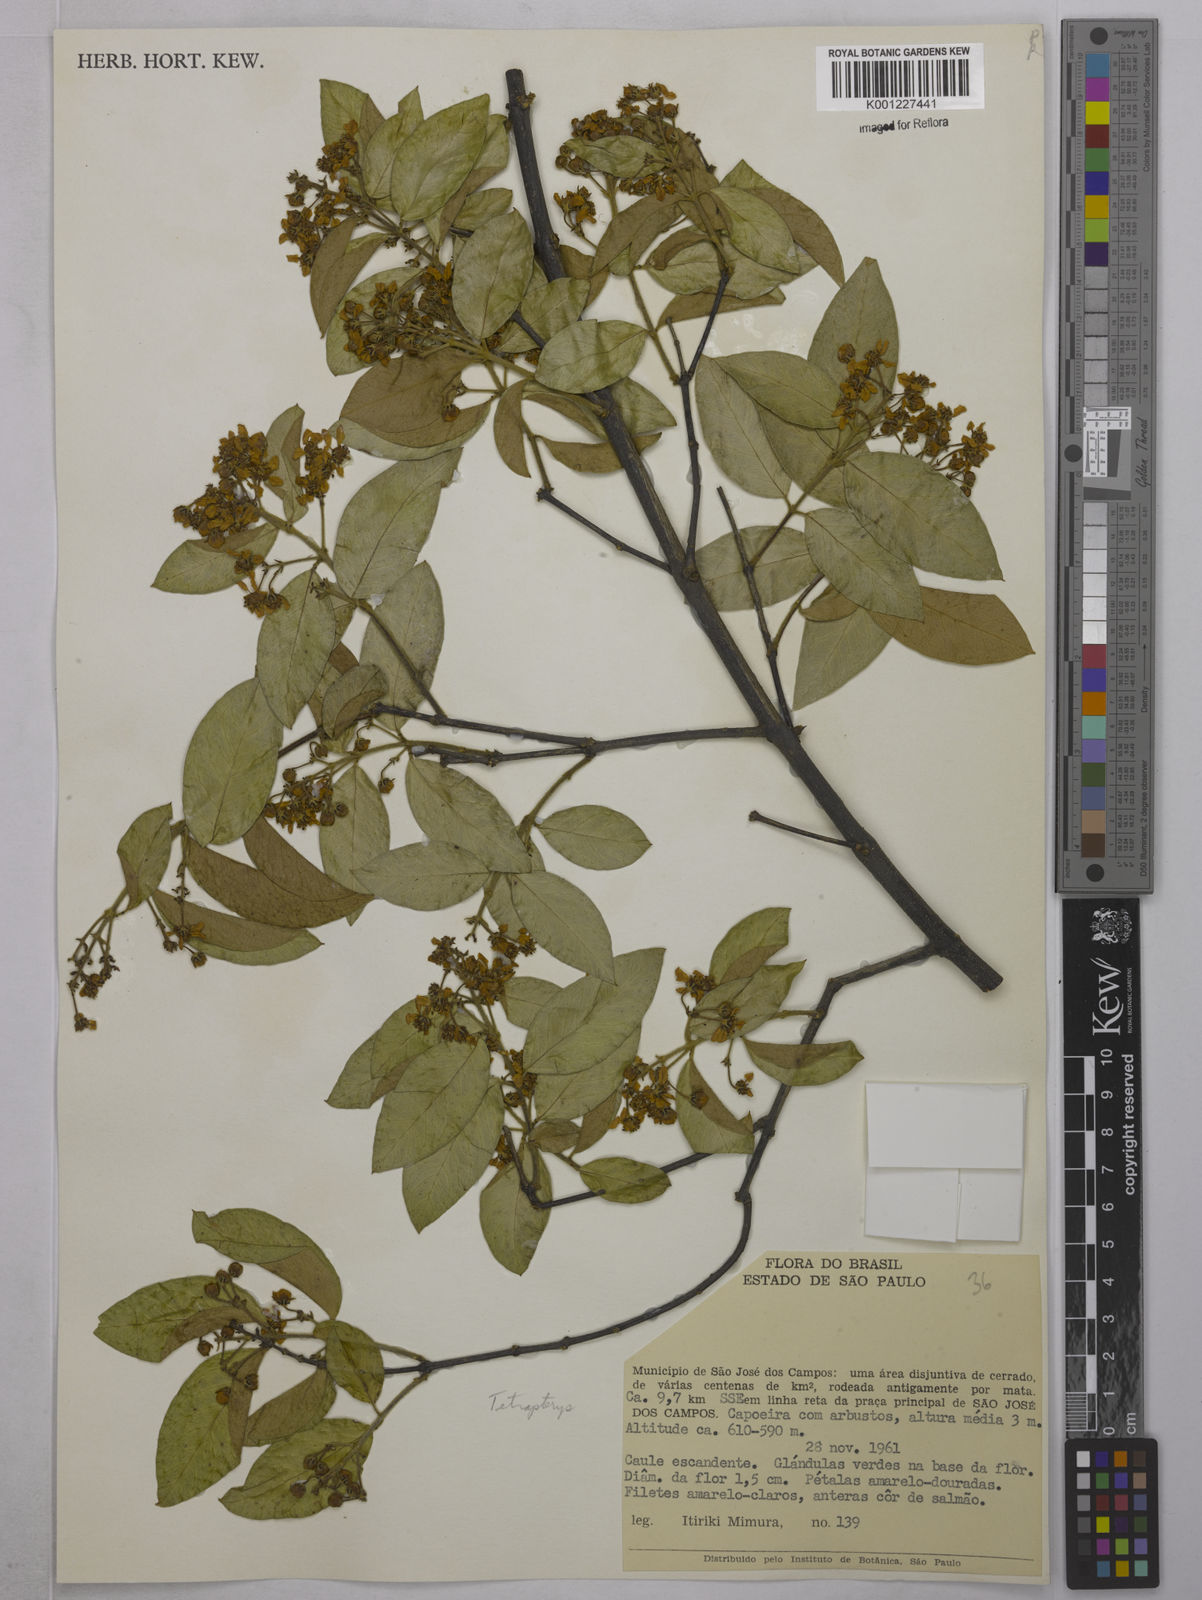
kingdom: Plantae
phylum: Tracheophyta
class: Magnoliopsida
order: Malpighiales
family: Malpighiaceae
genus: Tetrapterys
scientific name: Tetrapterys
